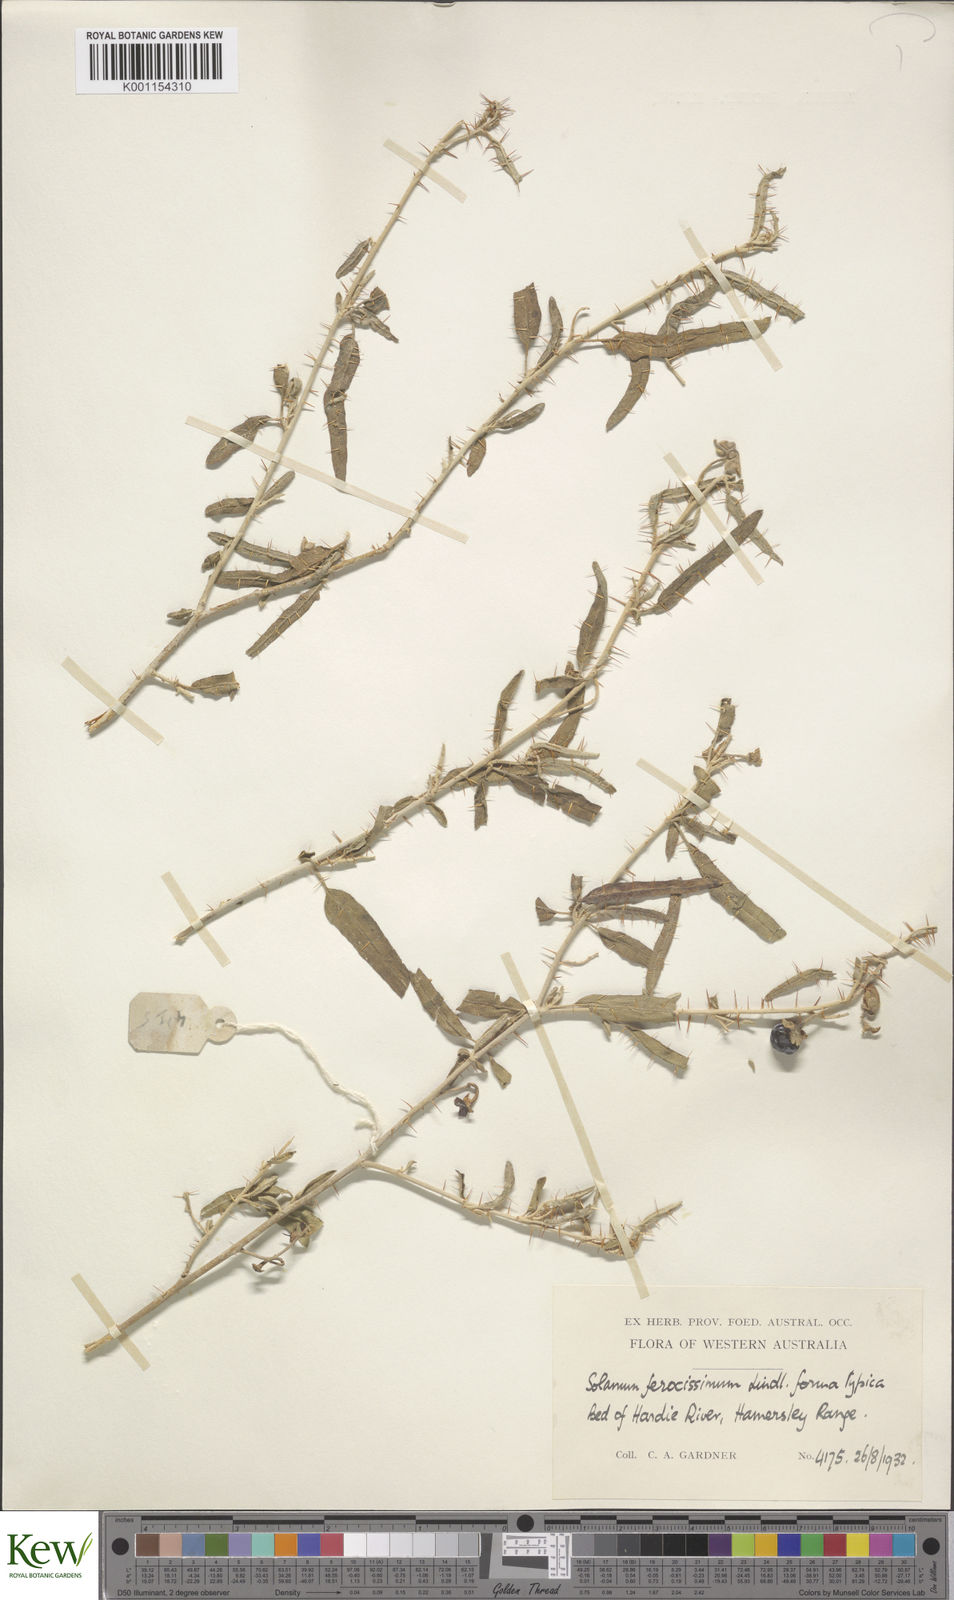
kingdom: Plantae
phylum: Tracheophyta
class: Magnoliopsida
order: Solanales
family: Solanaceae
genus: Solanum
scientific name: Solanum ferocissimum
